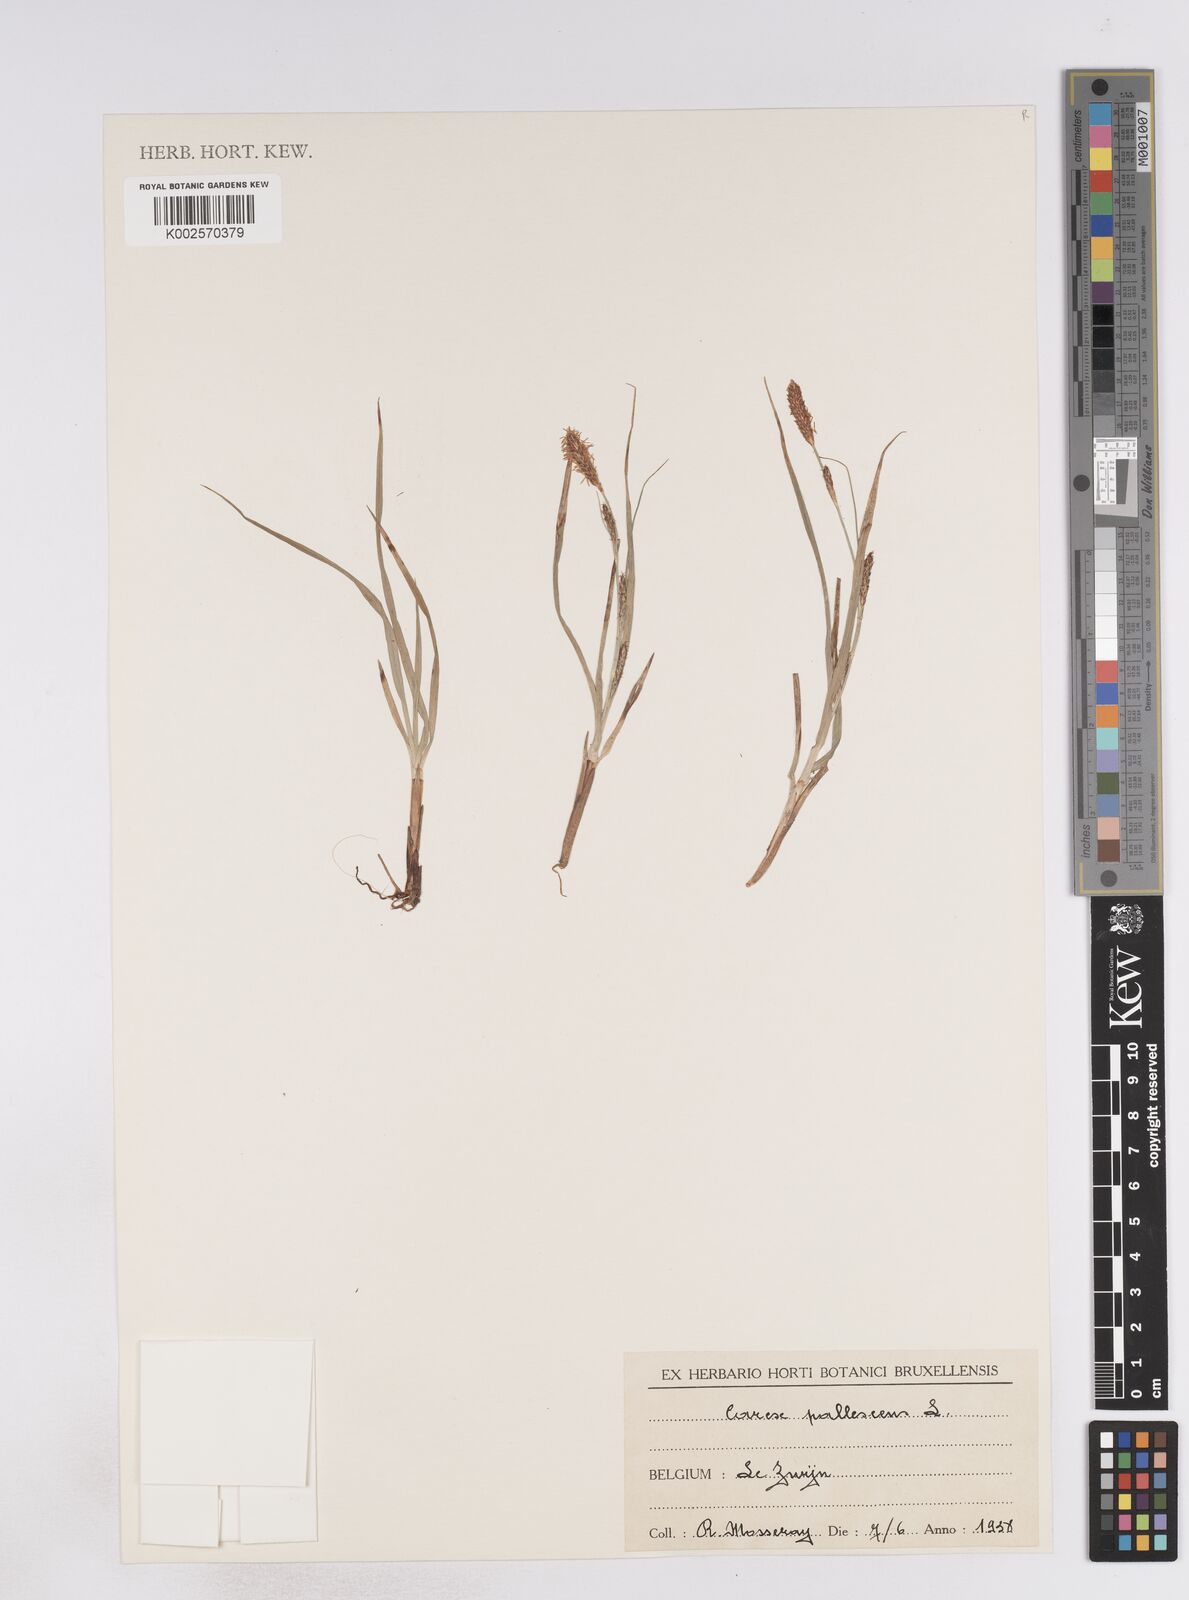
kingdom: Plantae
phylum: Tracheophyta
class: Liliopsida
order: Poales
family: Cyperaceae
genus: Carex
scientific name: Carex pallescens
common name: Pale sedge
